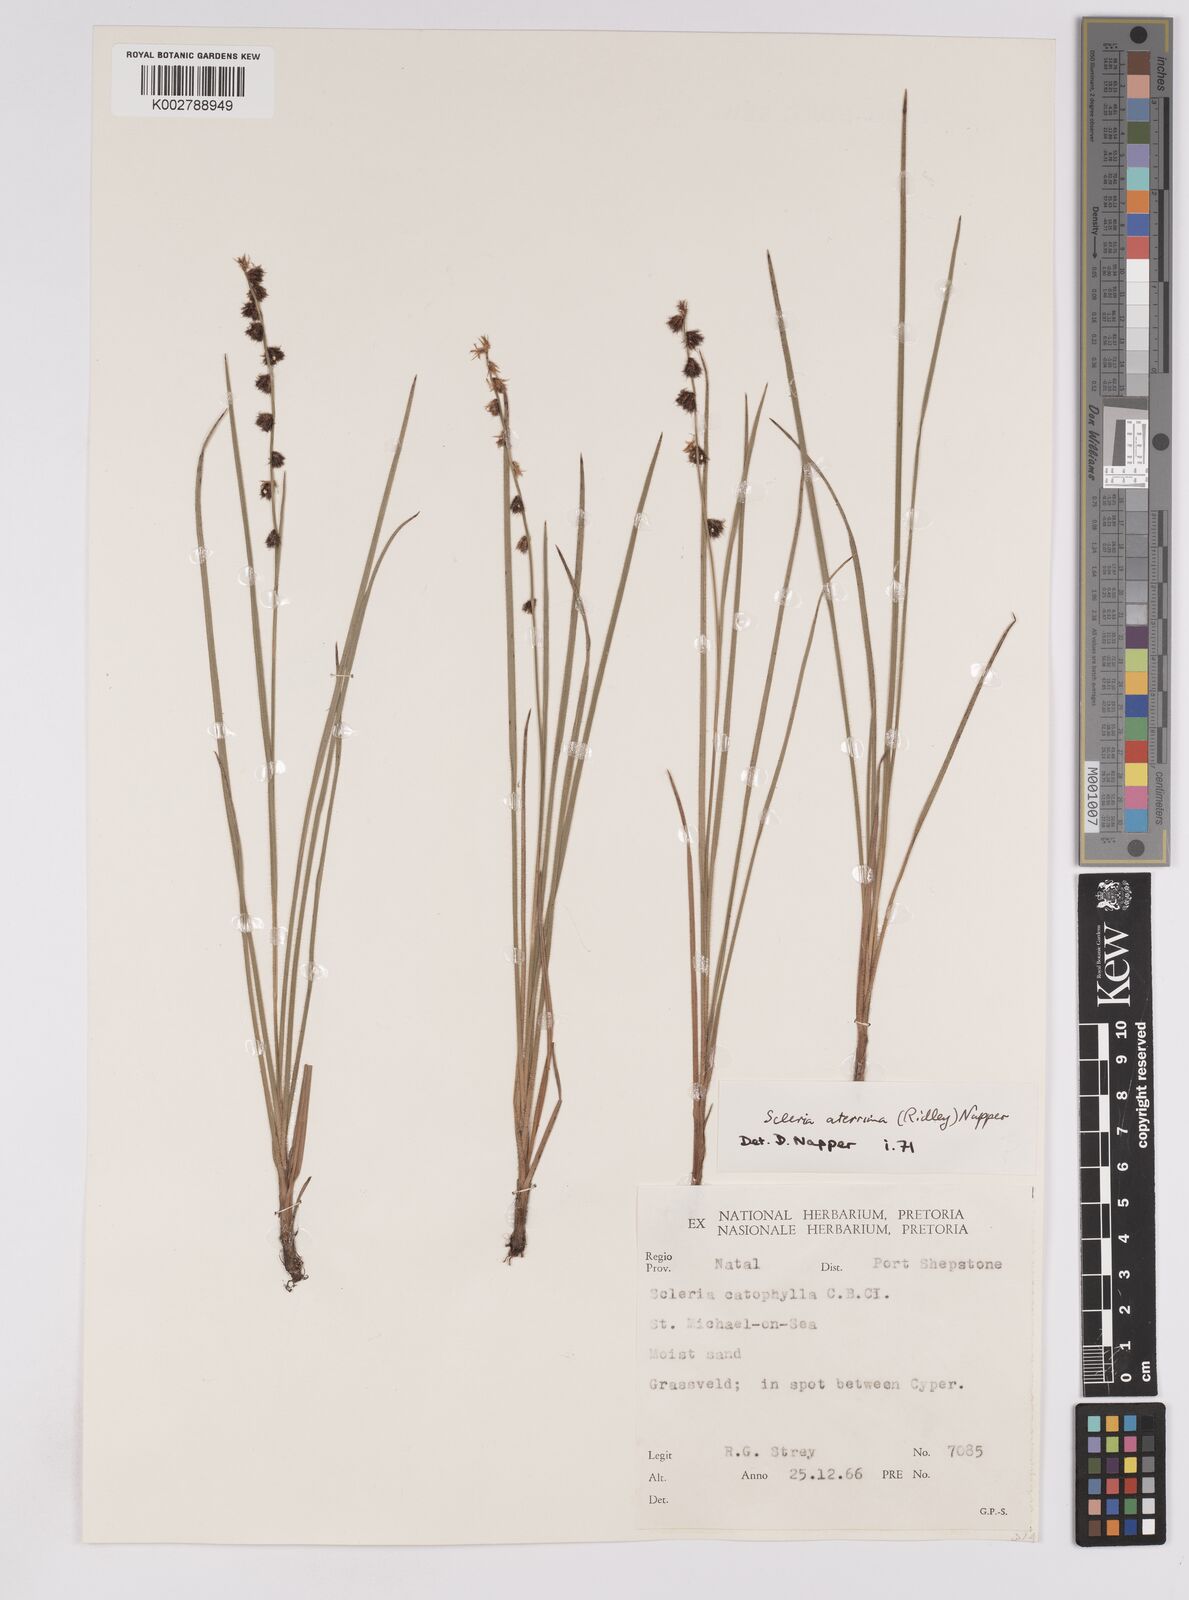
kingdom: Plantae
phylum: Tracheophyta
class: Liliopsida
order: Poales
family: Cyperaceae
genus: Scleria
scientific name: Scleria catophylla
